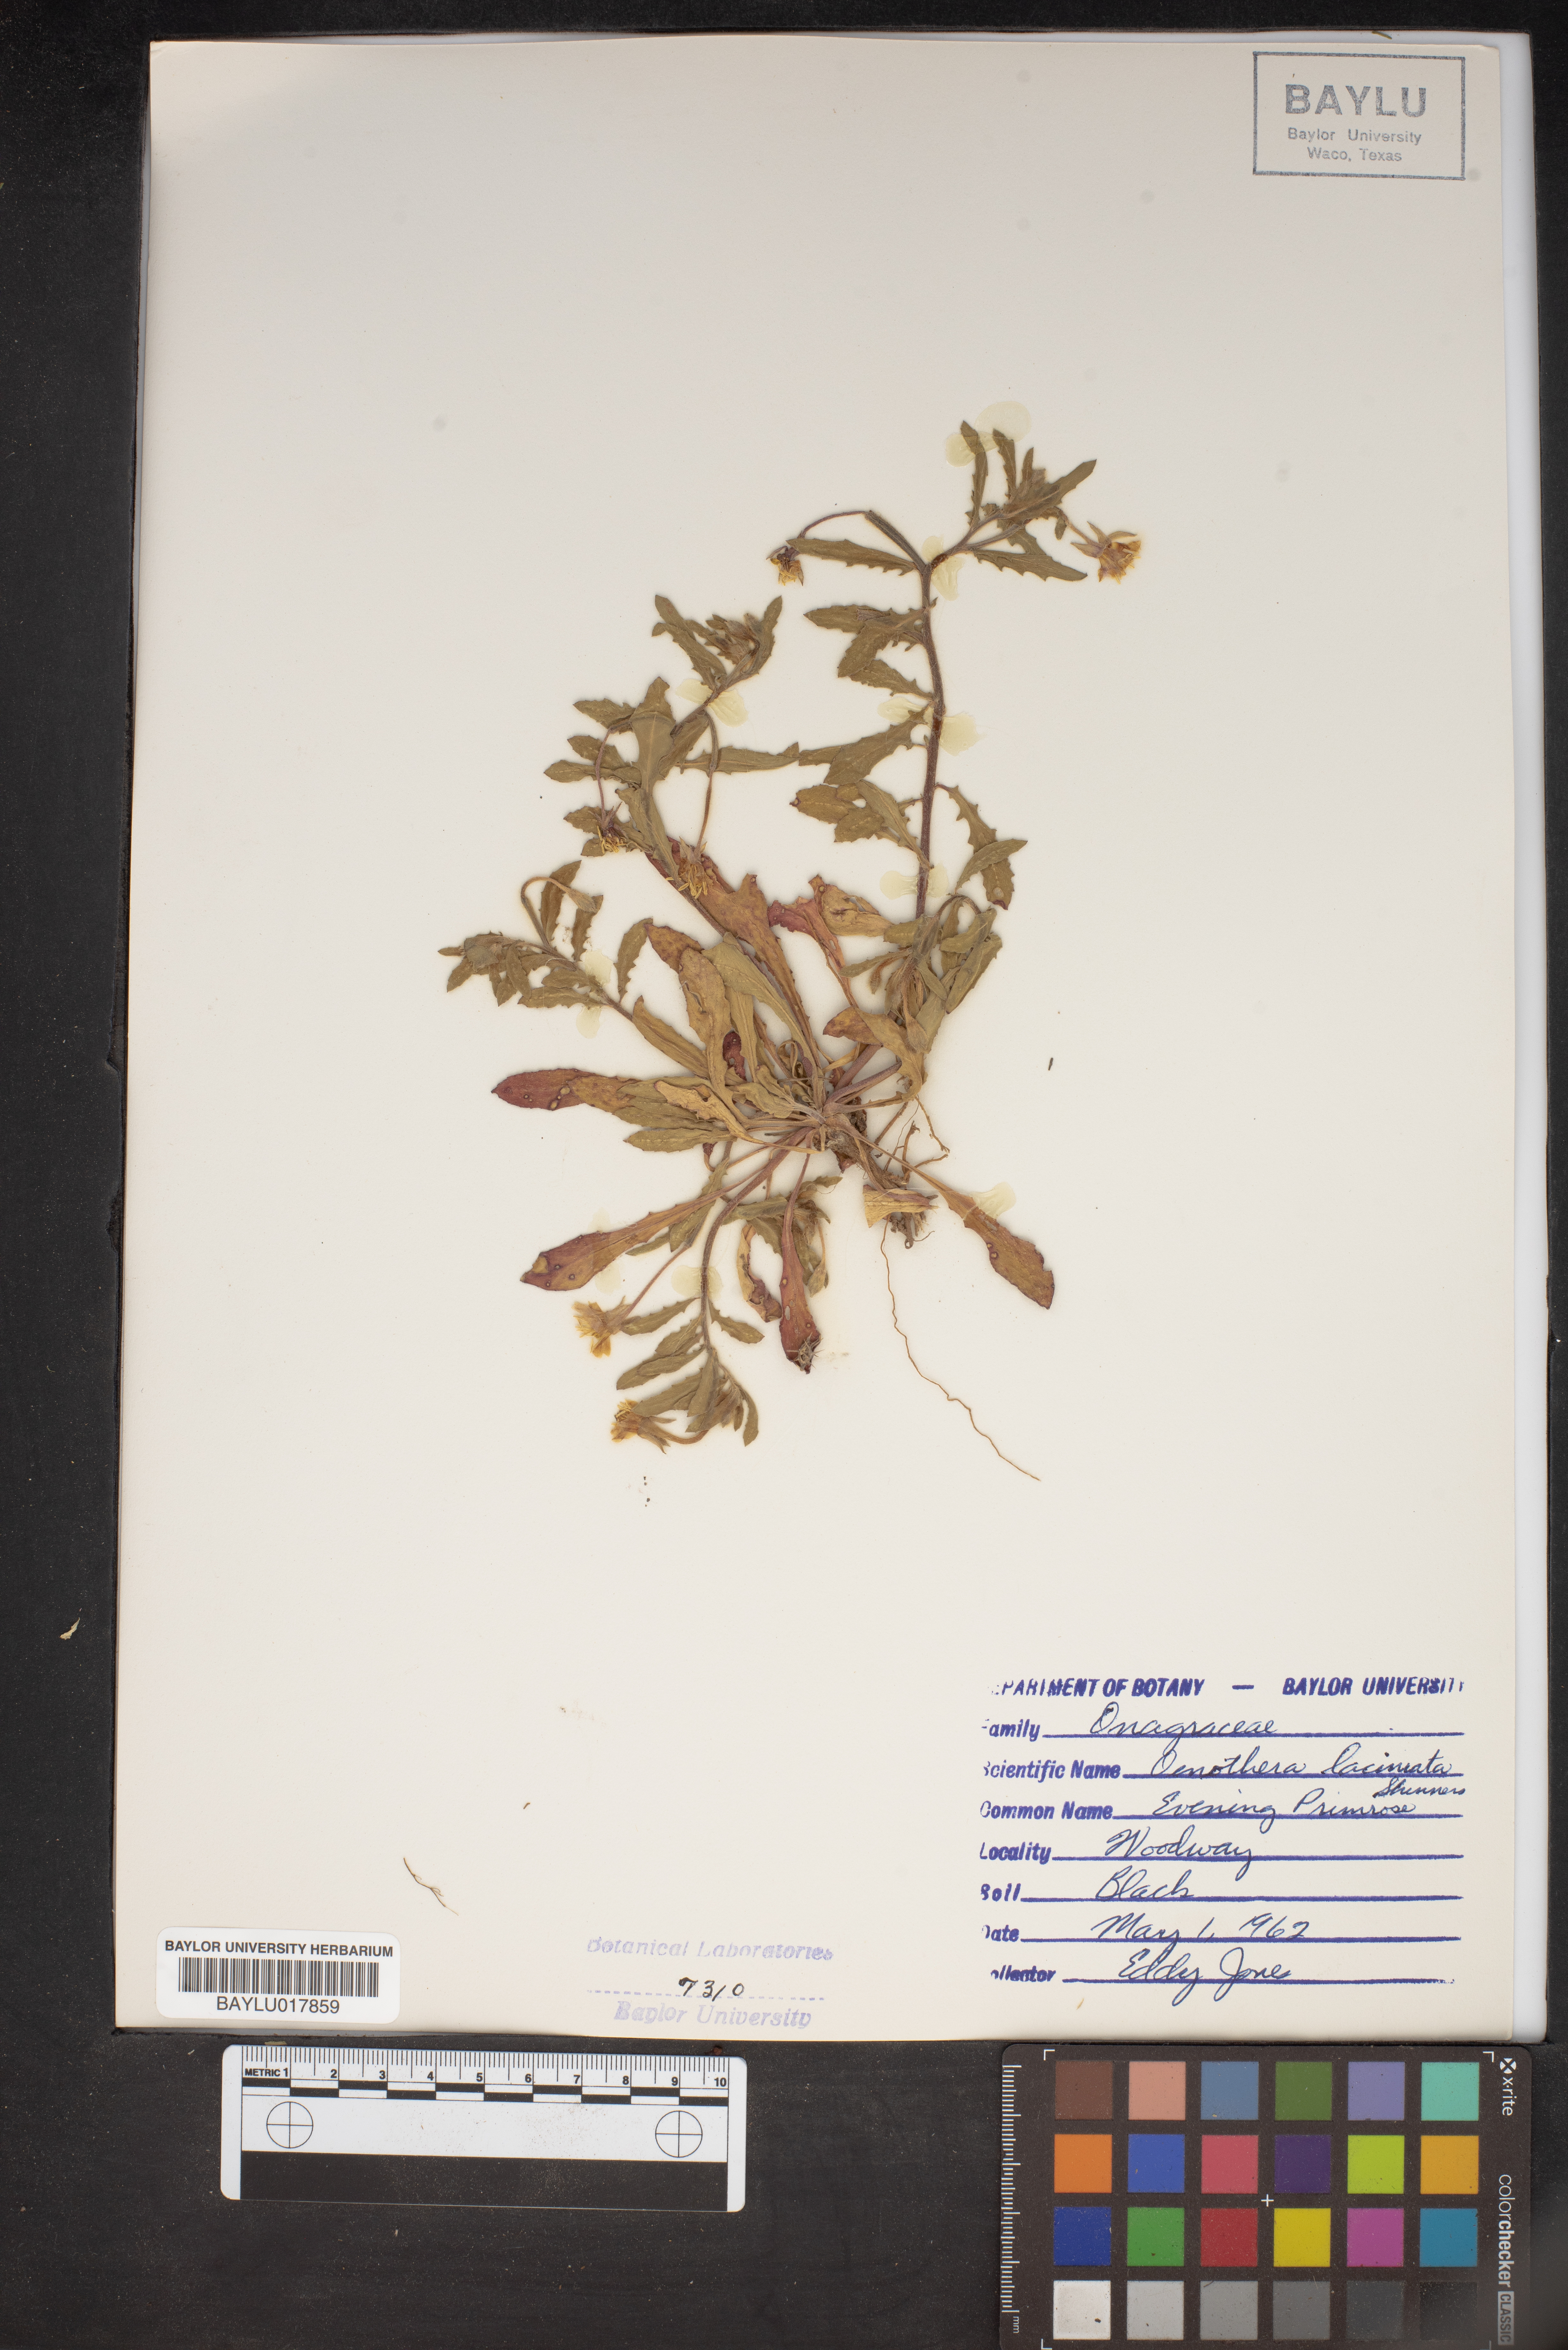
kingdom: Plantae
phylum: Tracheophyta
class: Magnoliopsida
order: Myrtales
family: Onagraceae
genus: Oenothera
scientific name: Oenothera laciniata
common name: Cut-leaved evening-primrose
